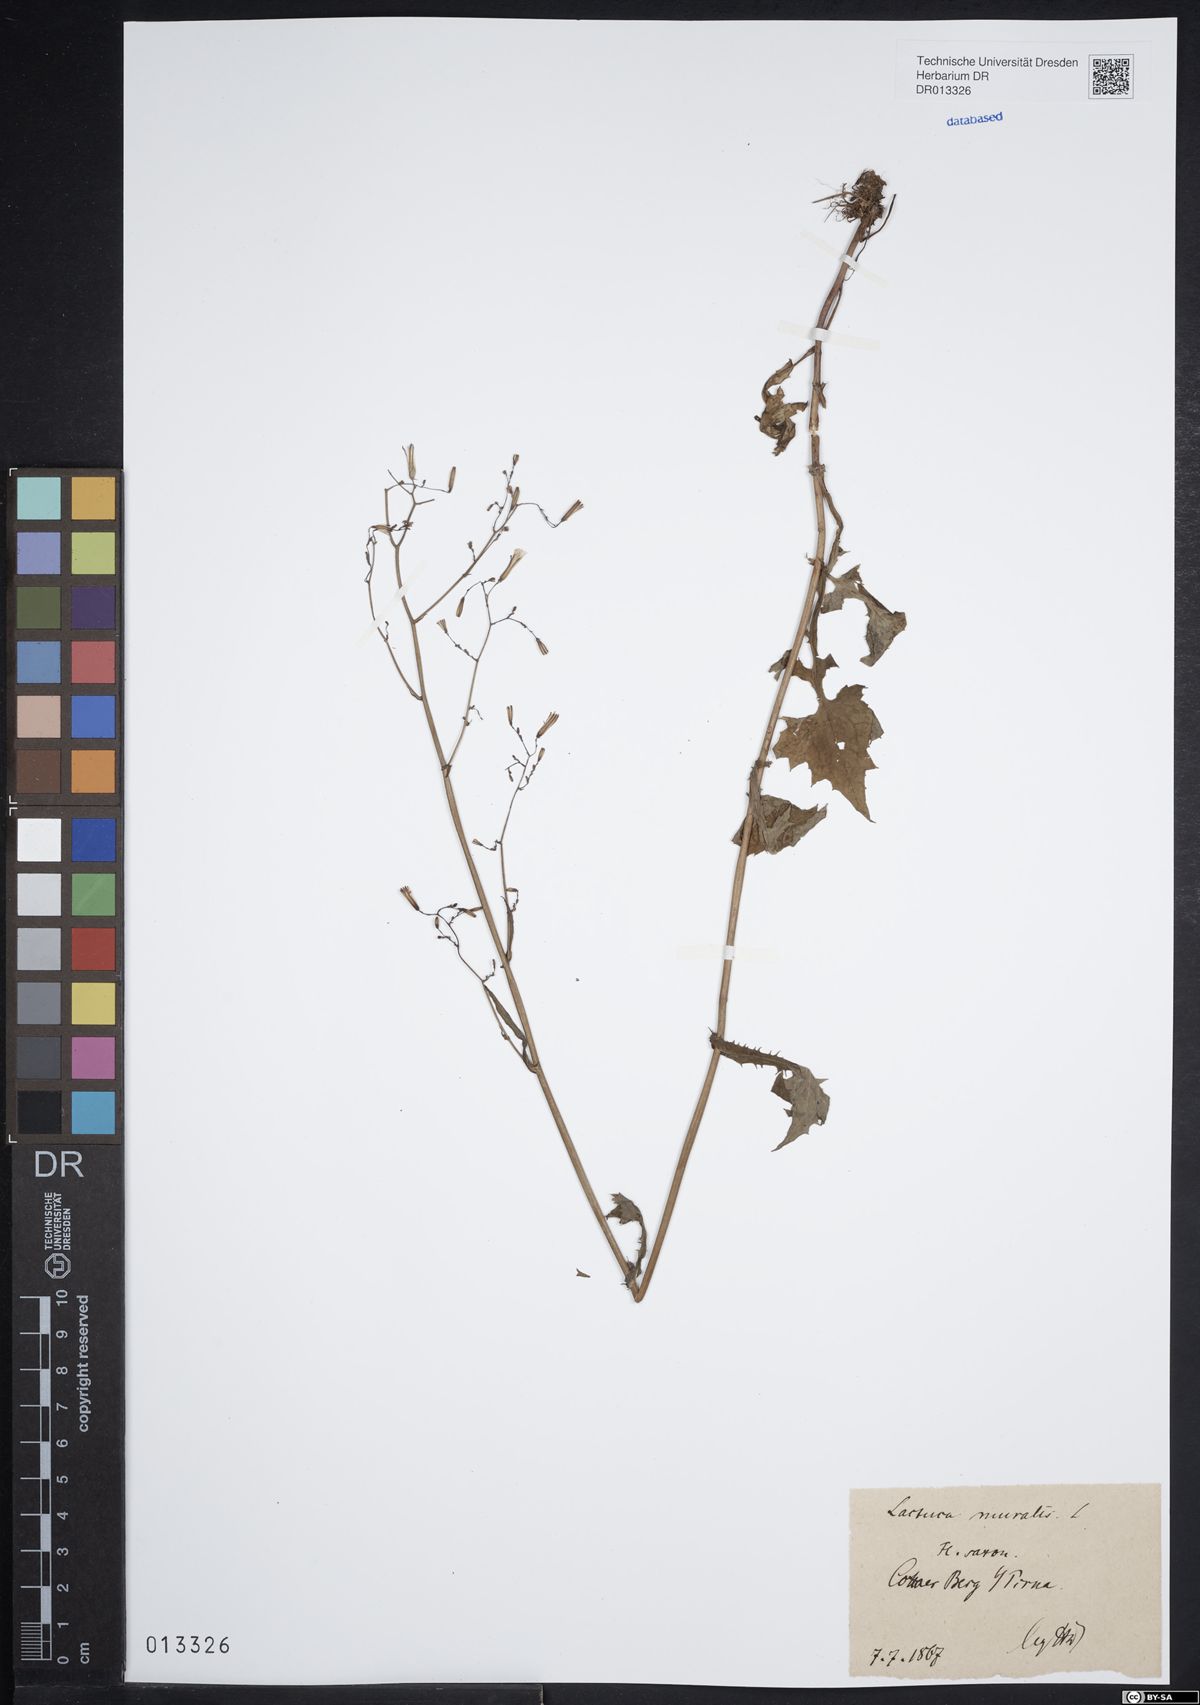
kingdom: Plantae
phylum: Tracheophyta
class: Magnoliopsida
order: Asterales
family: Asteraceae
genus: Mycelis
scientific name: Mycelis muralis
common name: Wall lettuce
